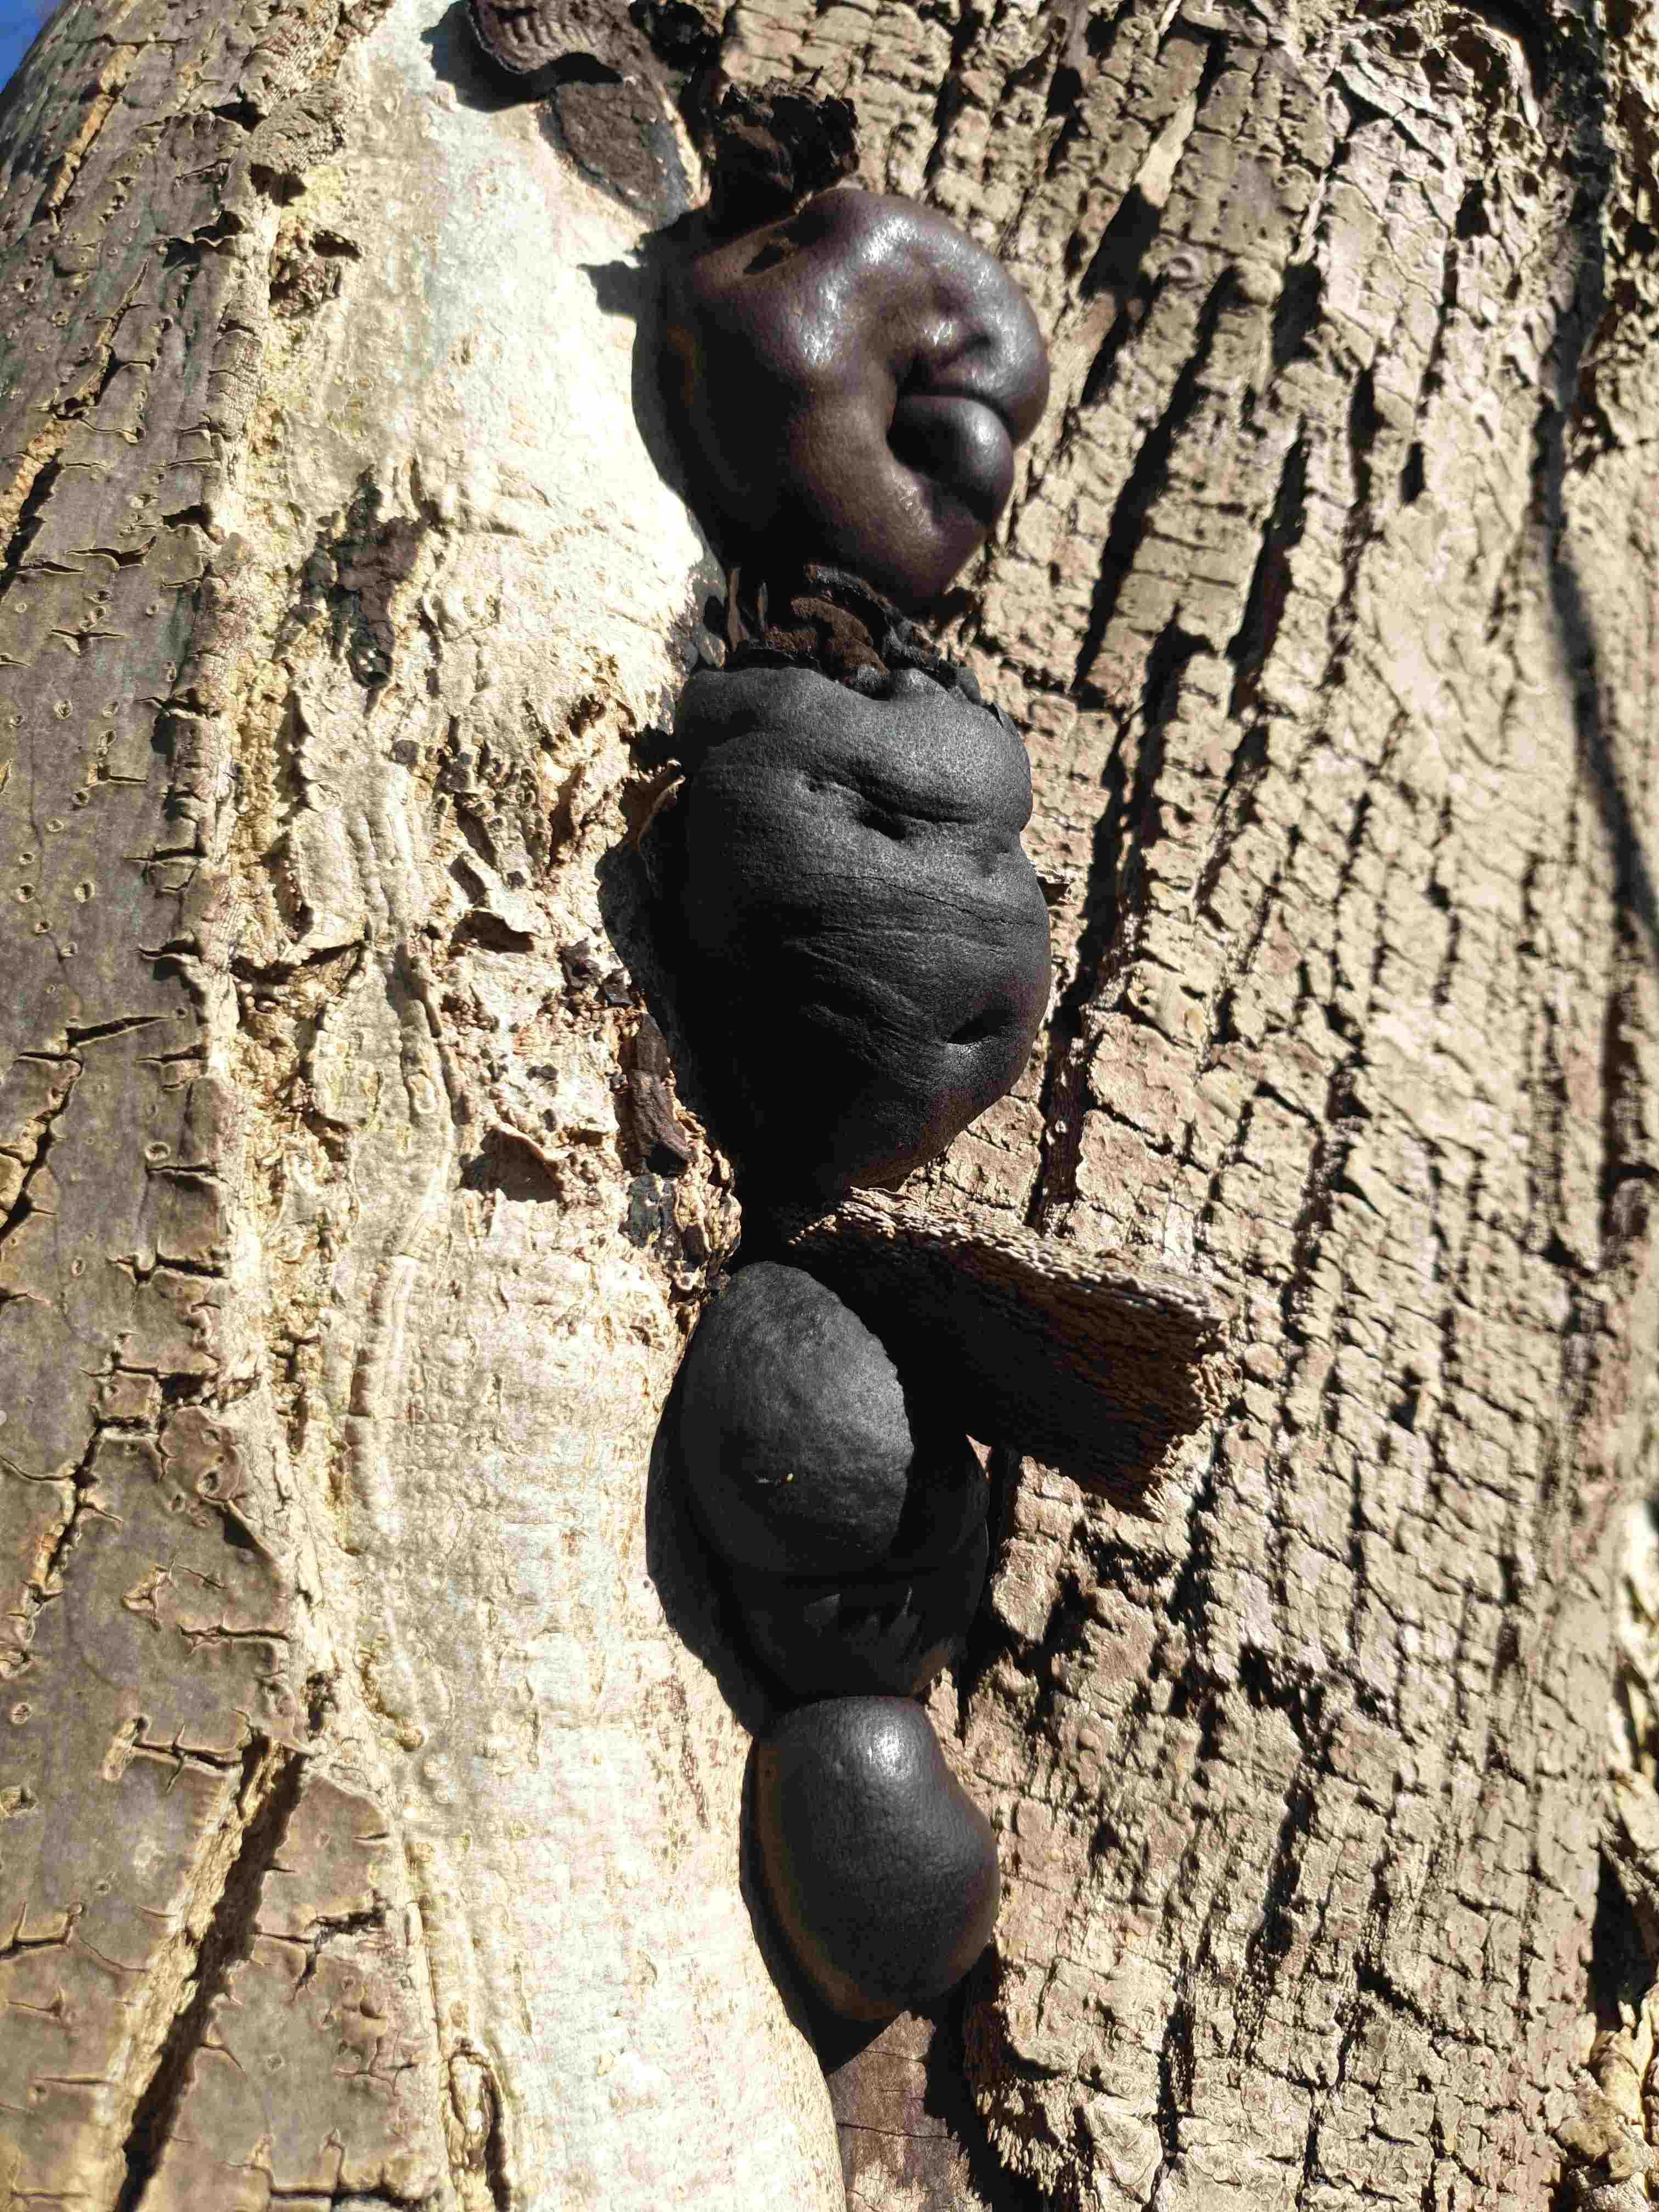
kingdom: Fungi
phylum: Ascomycota
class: Sordariomycetes
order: Xylariales
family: Hypoxylaceae
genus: Daldinia
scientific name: Daldinia concentrica
